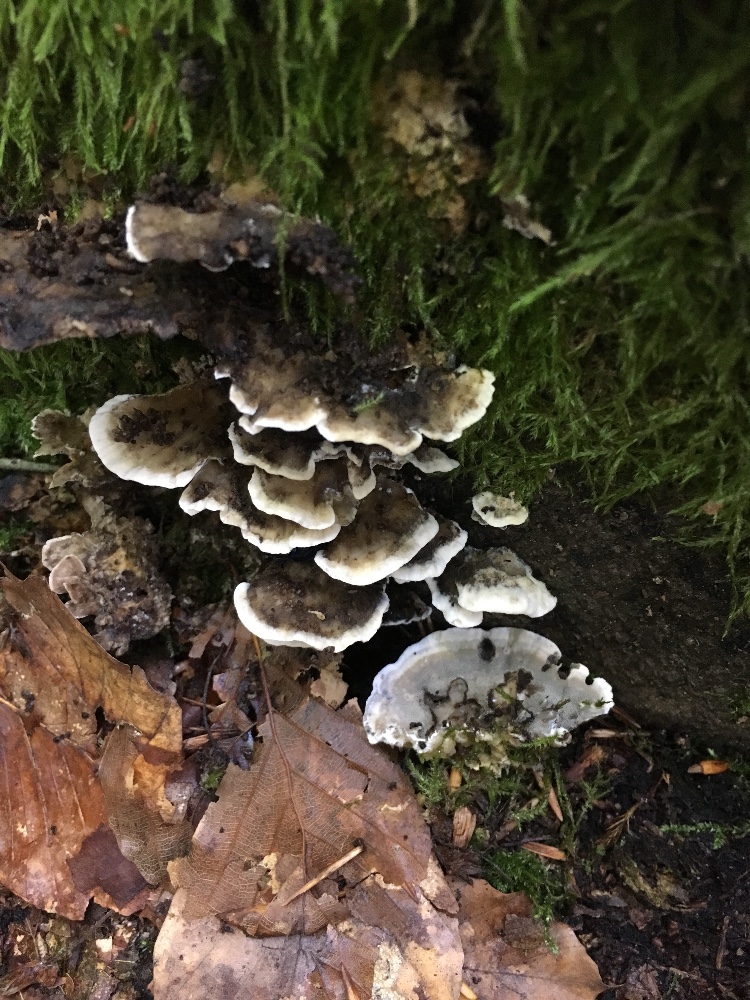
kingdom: Fungi
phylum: Basidiomycota
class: Agaricomycetes
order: Polyporales
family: Phanerochaetaceae
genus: Bjerkandera
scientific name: Bjerkandera adusta
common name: sveden sodporesvamp
